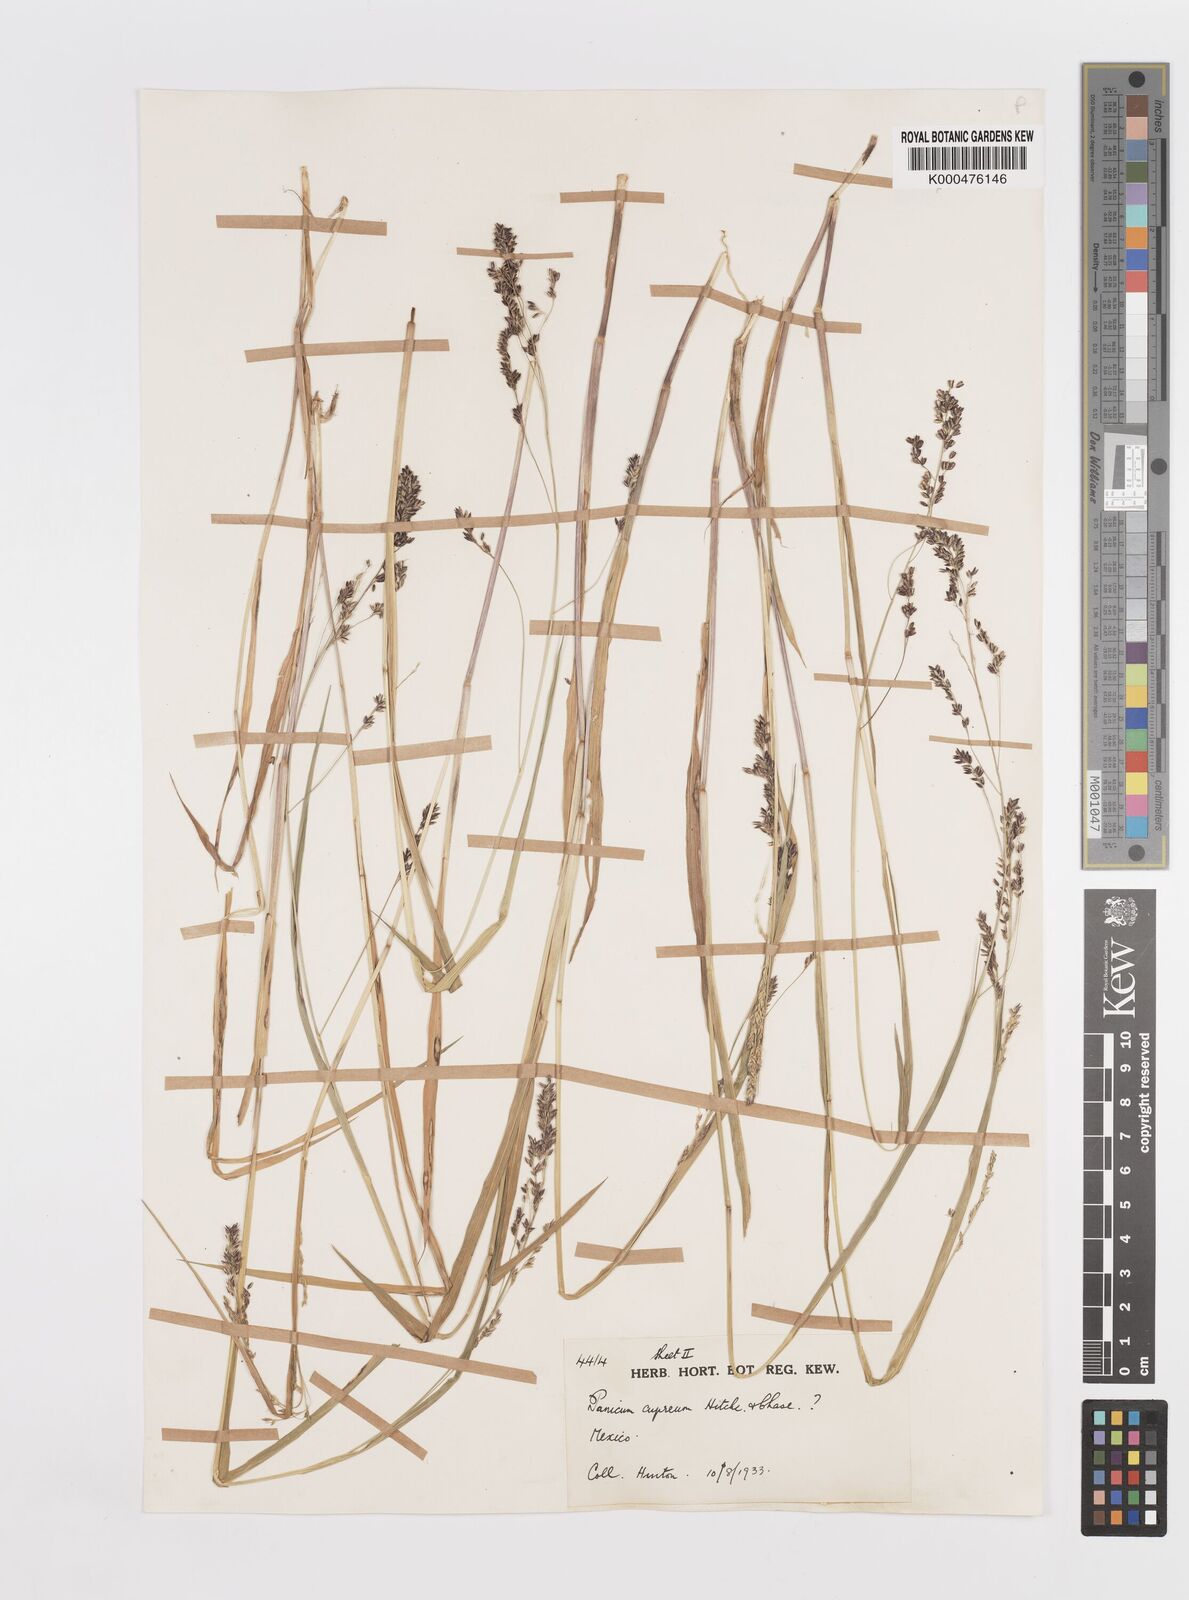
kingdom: Plantae
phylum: Tracheophyta
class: Liliopsida
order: Poales
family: Poaceae
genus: Steinchisma
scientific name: Steinchisma cupreum
